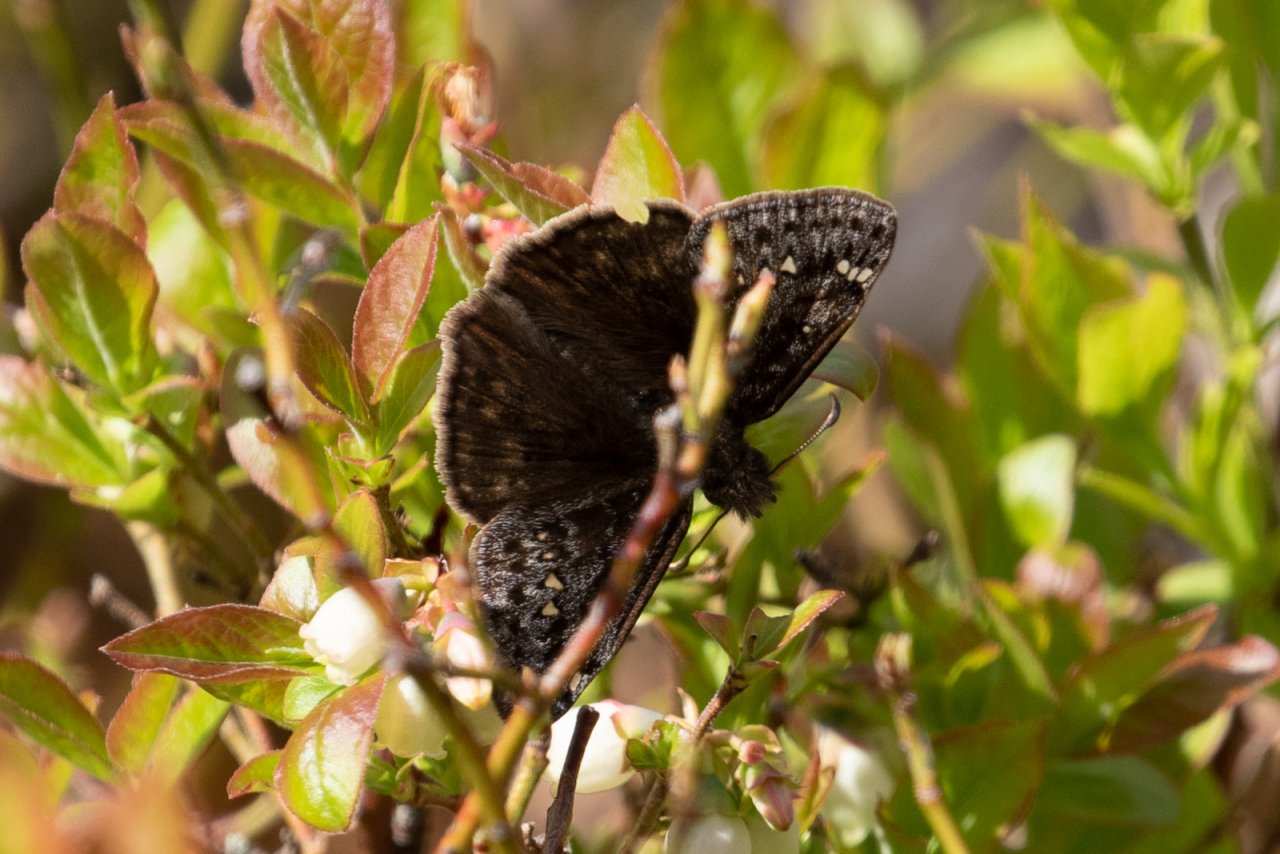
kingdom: Animalia
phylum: Arthropoda
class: Insecta
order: Lepidoptera
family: Hesperiidae
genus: Gesta
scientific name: Gesta
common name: Juvenal's Duskywing
